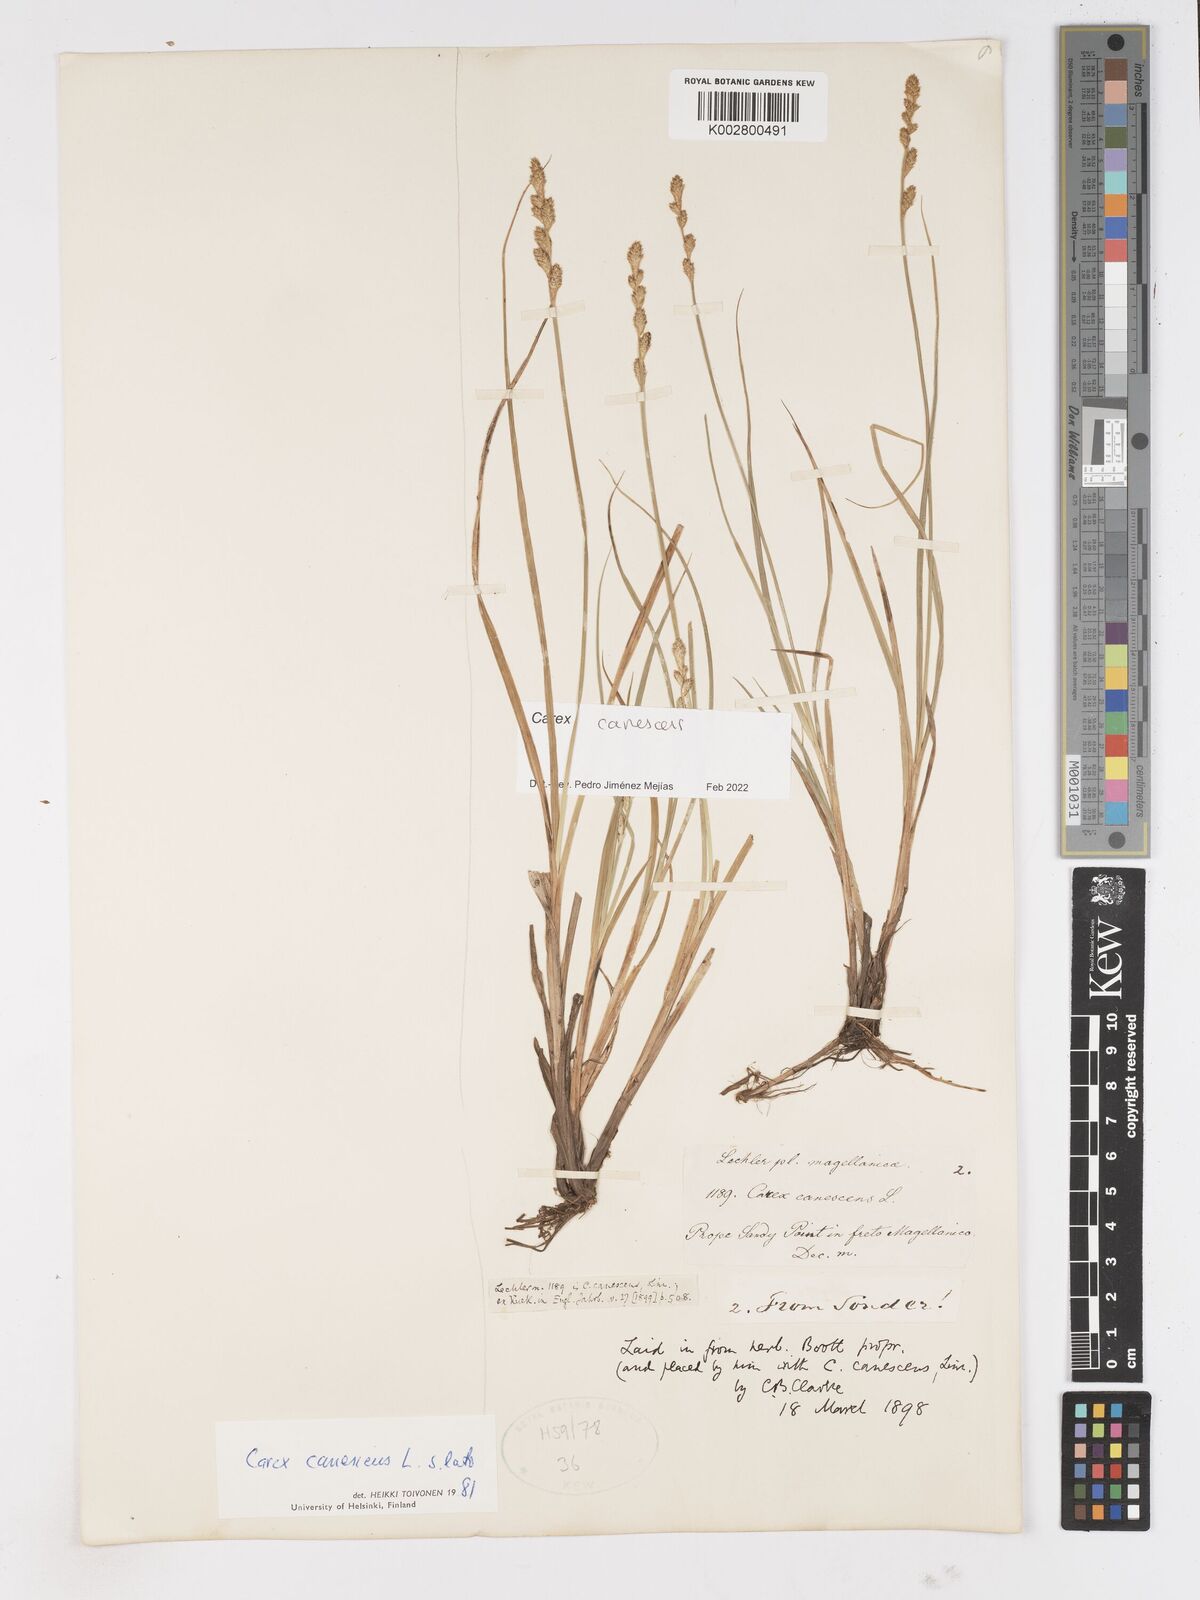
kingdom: Plantae
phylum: Tracheophyta
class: Liliopsida
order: Poales
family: Cyperaceae
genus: Carex
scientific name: Carex curta
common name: White sedge
